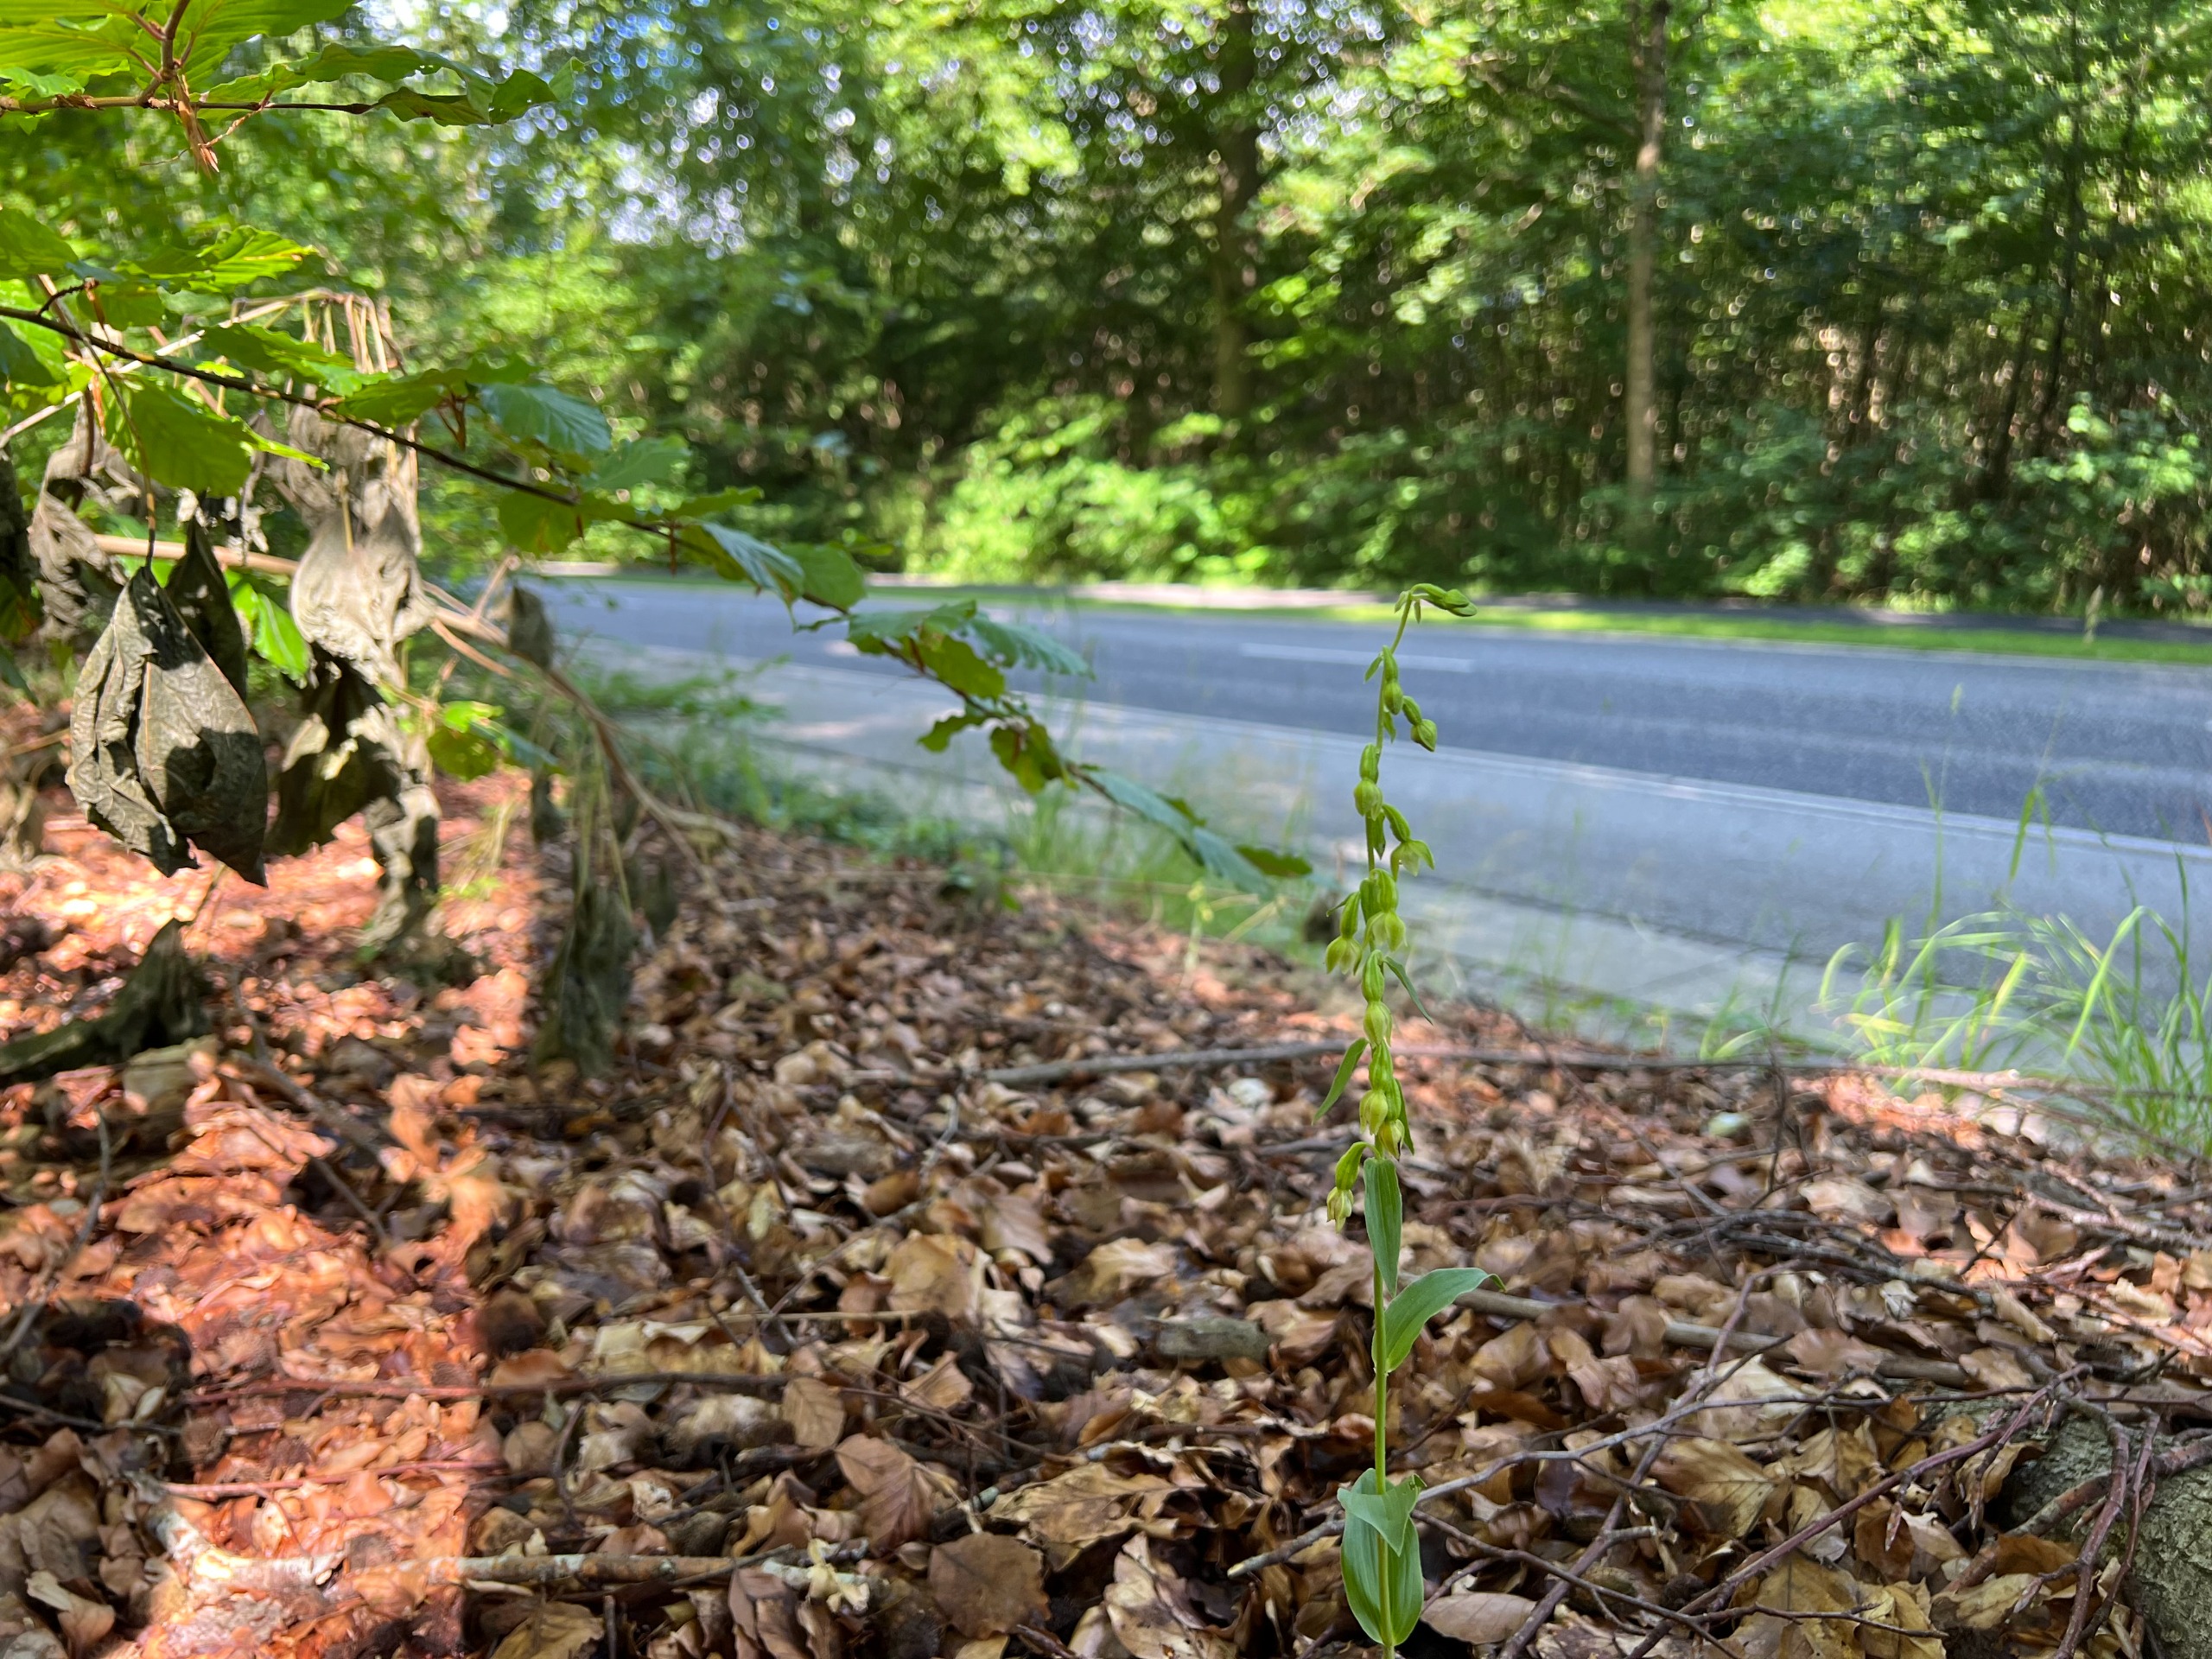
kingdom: Plantae
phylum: Tracheophyta
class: Liliopsida
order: Asparagales
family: Orchidaceae
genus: Epipactis
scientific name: Epipactis phyllanthes
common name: Nikkende hullæbe
